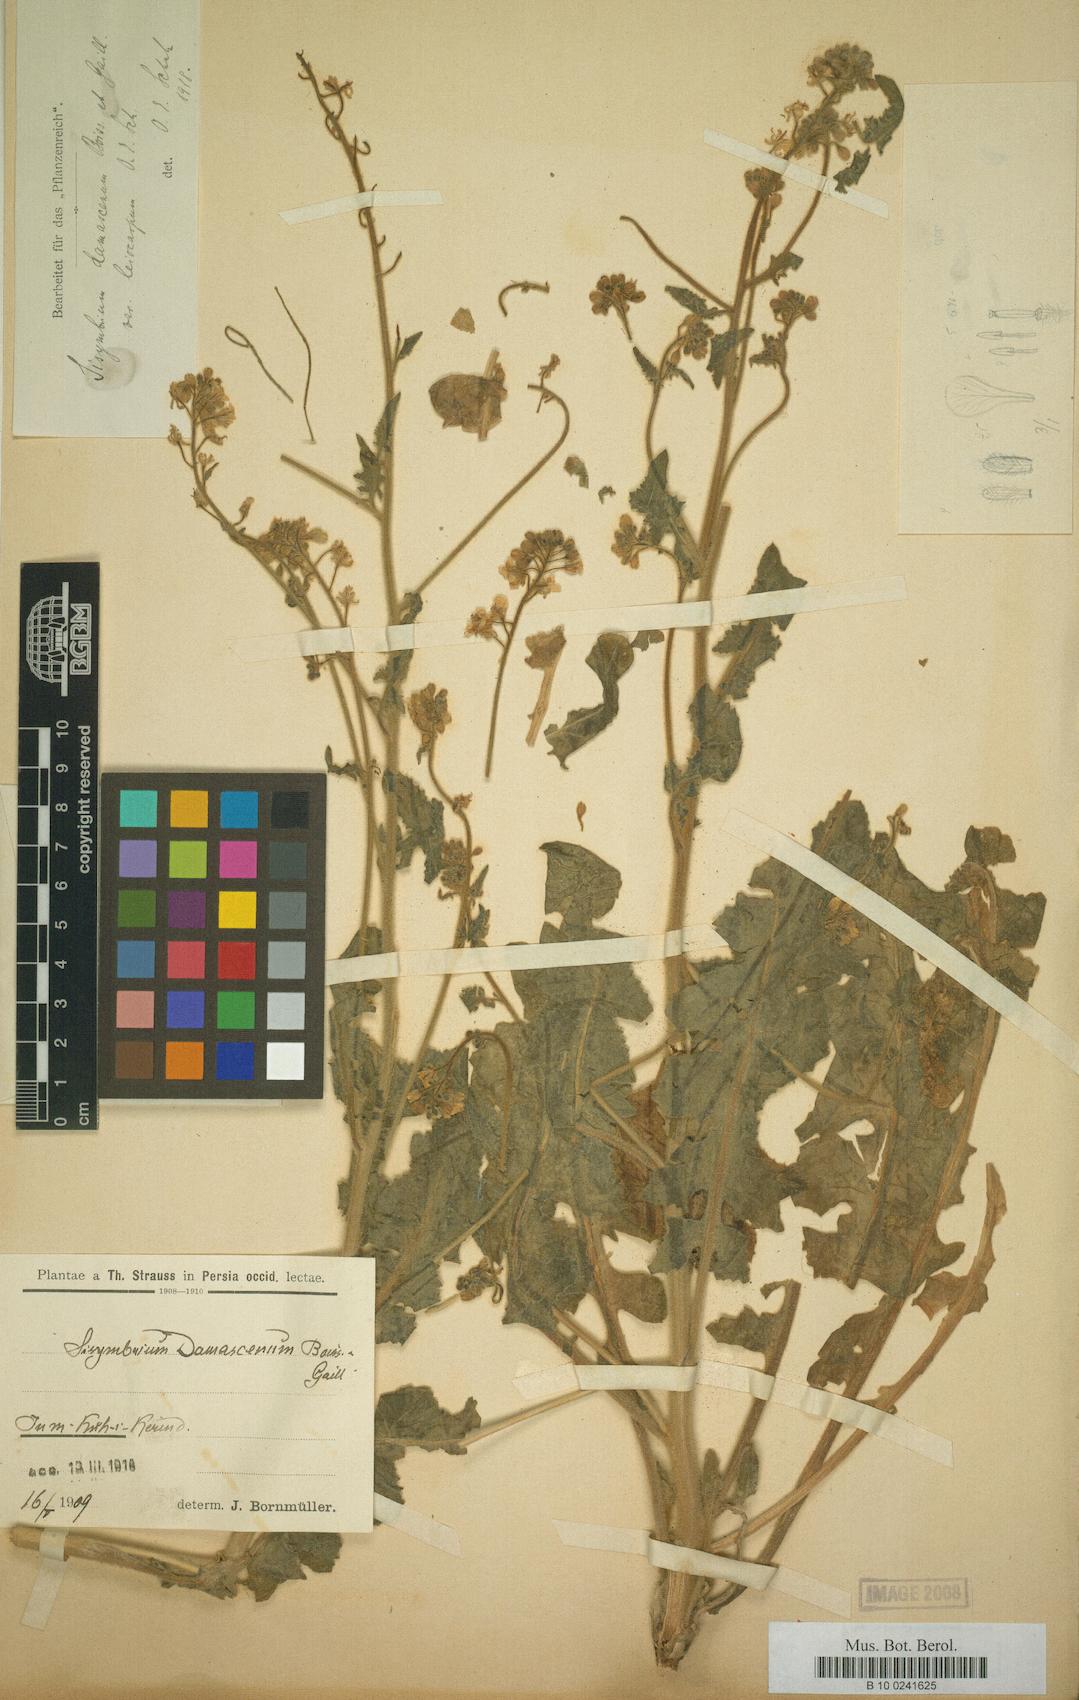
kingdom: Plantae
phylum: Tracheophyta
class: Magnoliopsida
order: Brassicales
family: Brassicaceae
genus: Sisymbrium
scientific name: Sisymbrium damascenum
